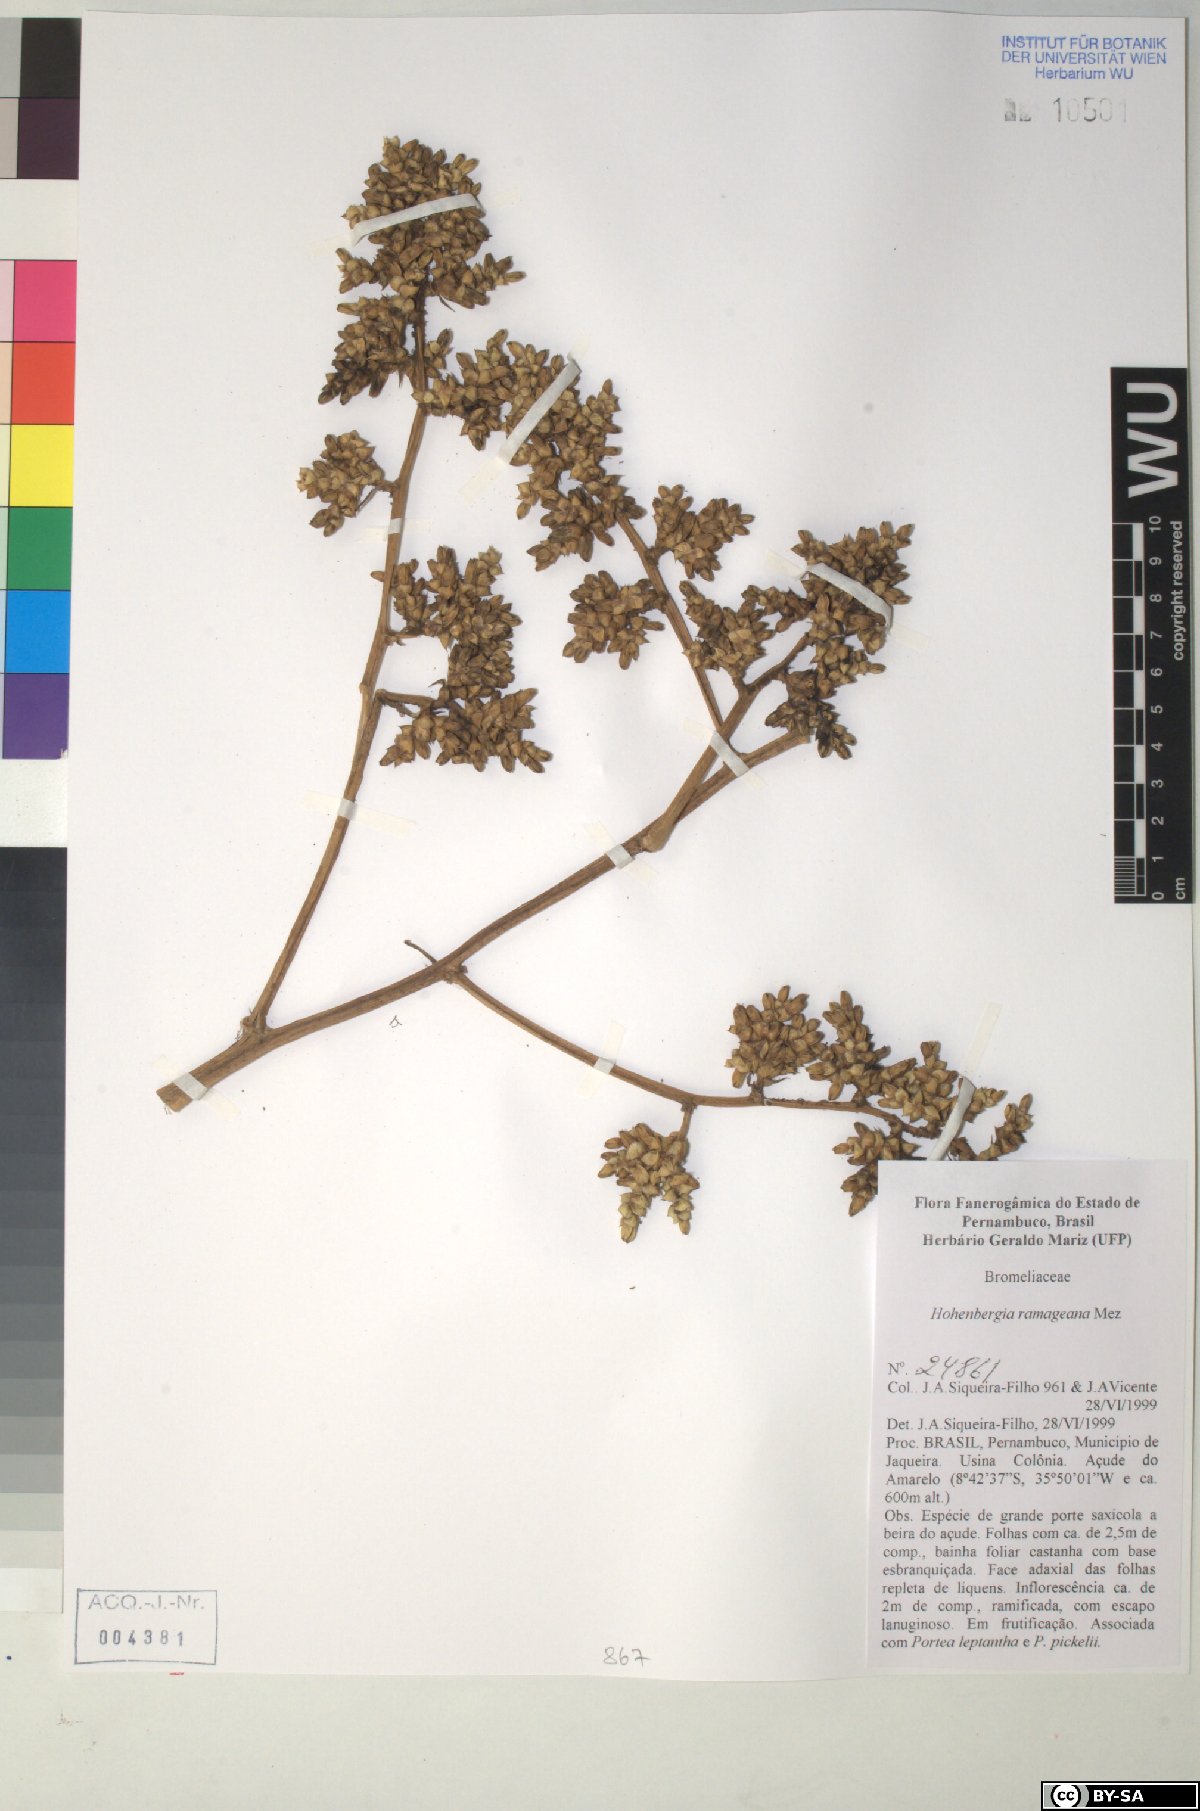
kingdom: Plantae
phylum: Tracheophyta
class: Liliopsida
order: Poales
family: Bromeliaceae
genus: Hohenbergia
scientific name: Hohenbergia ridleyi
